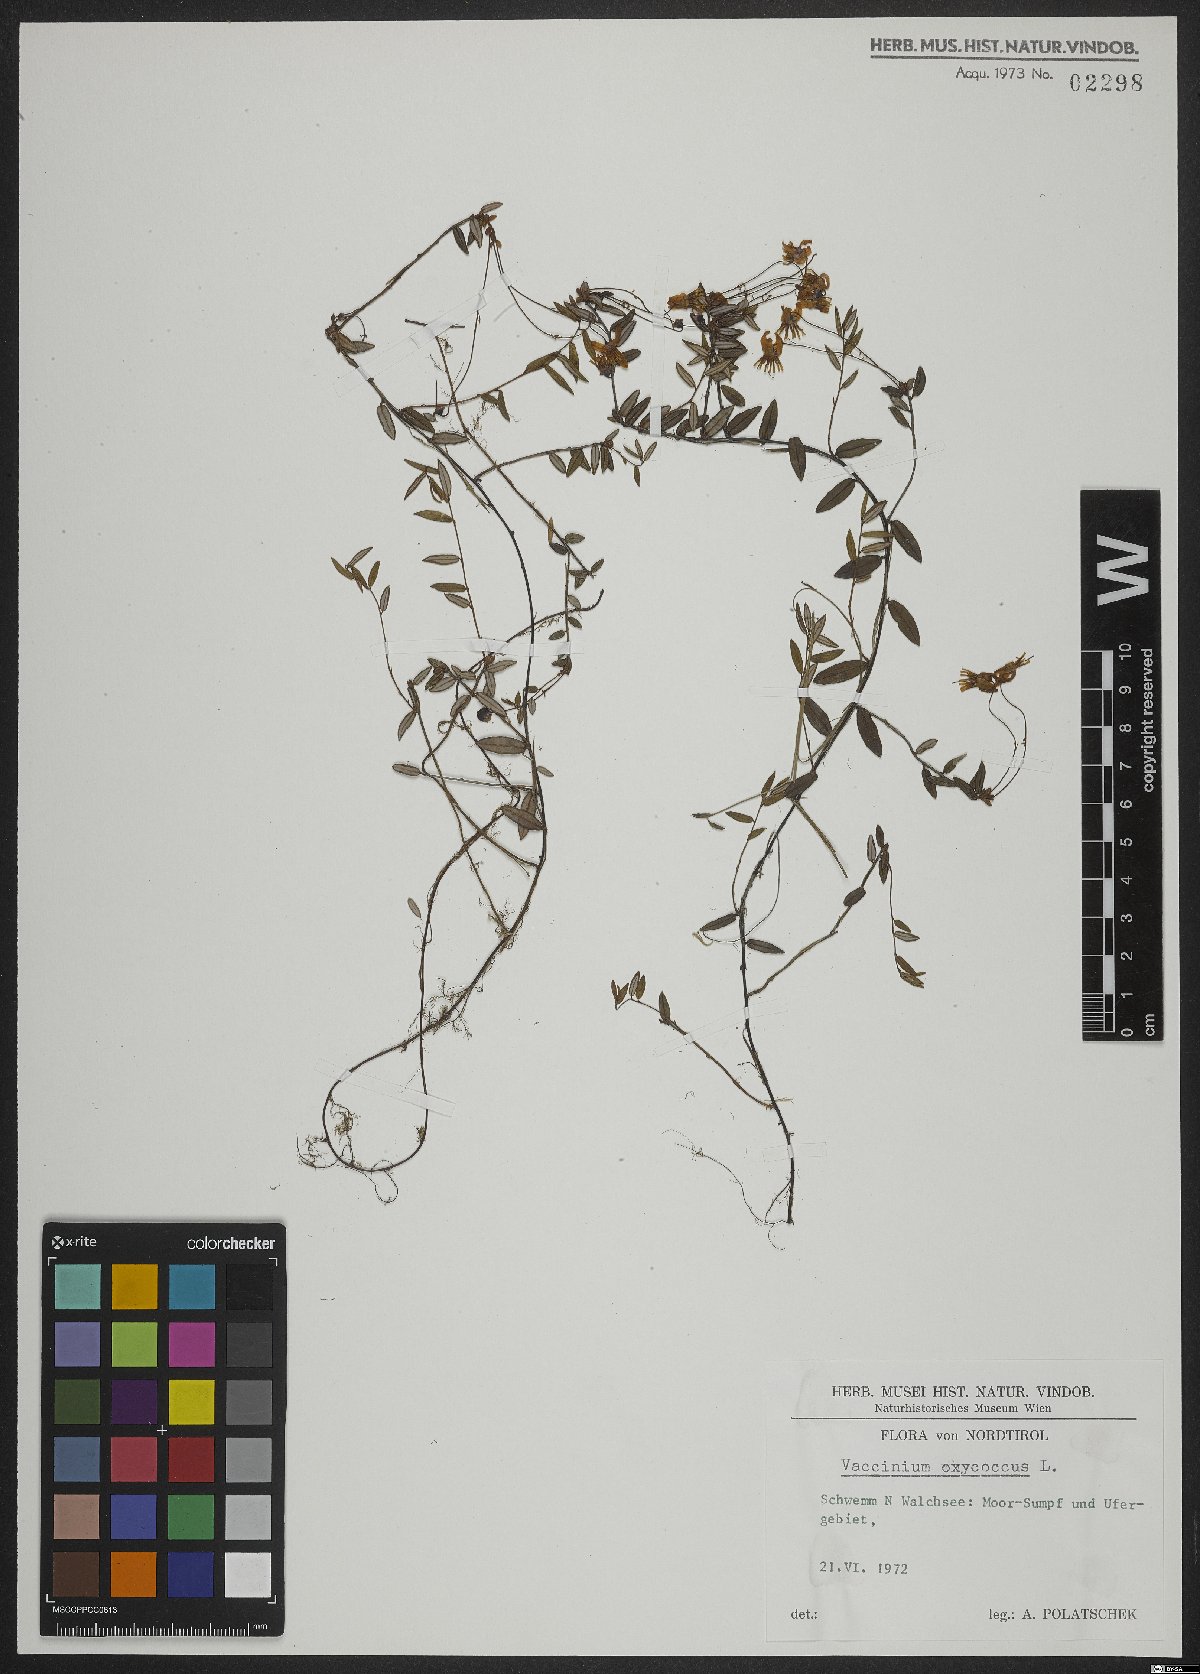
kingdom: Plantae
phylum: Tracheophyta
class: Magnoliopsida
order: Ericales
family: Ericaceae
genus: Vaccinium
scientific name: Vaccinium oxycoccos
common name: Cranberry
